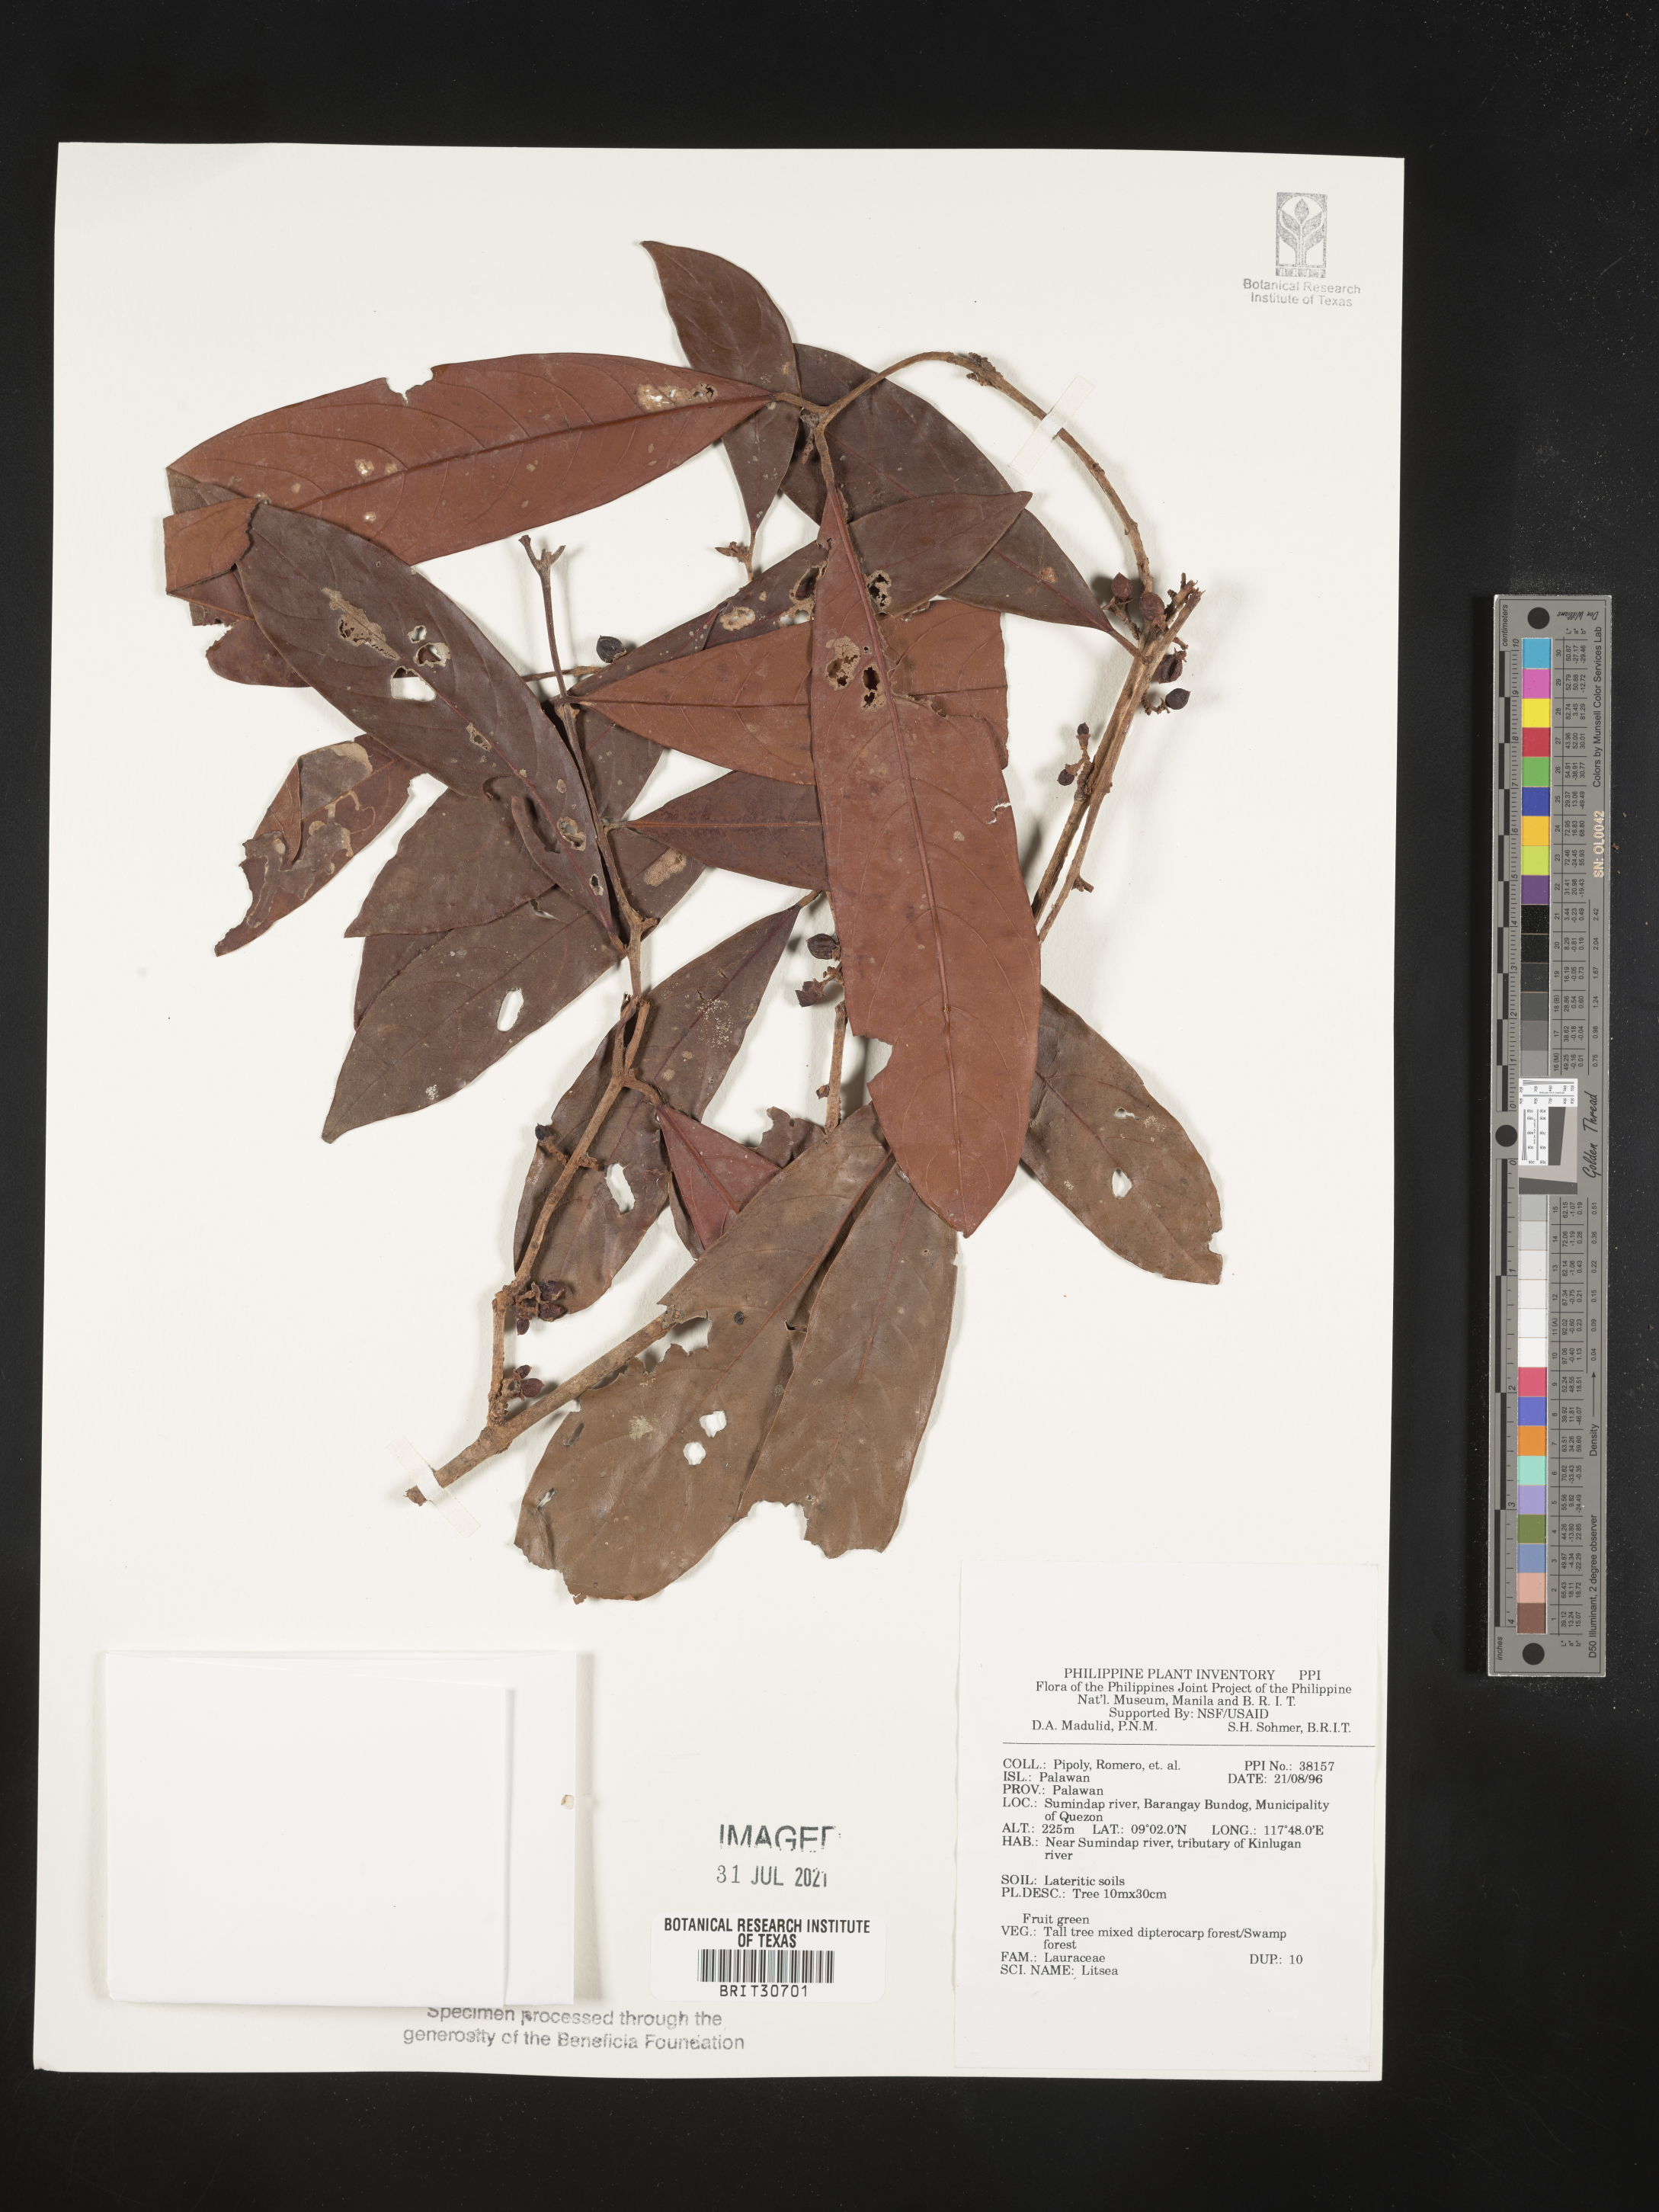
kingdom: Plantae
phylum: Tracheophyta
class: Magnoliopsida
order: Laurales
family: Lauraceae
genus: Litsea
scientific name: Litsea
